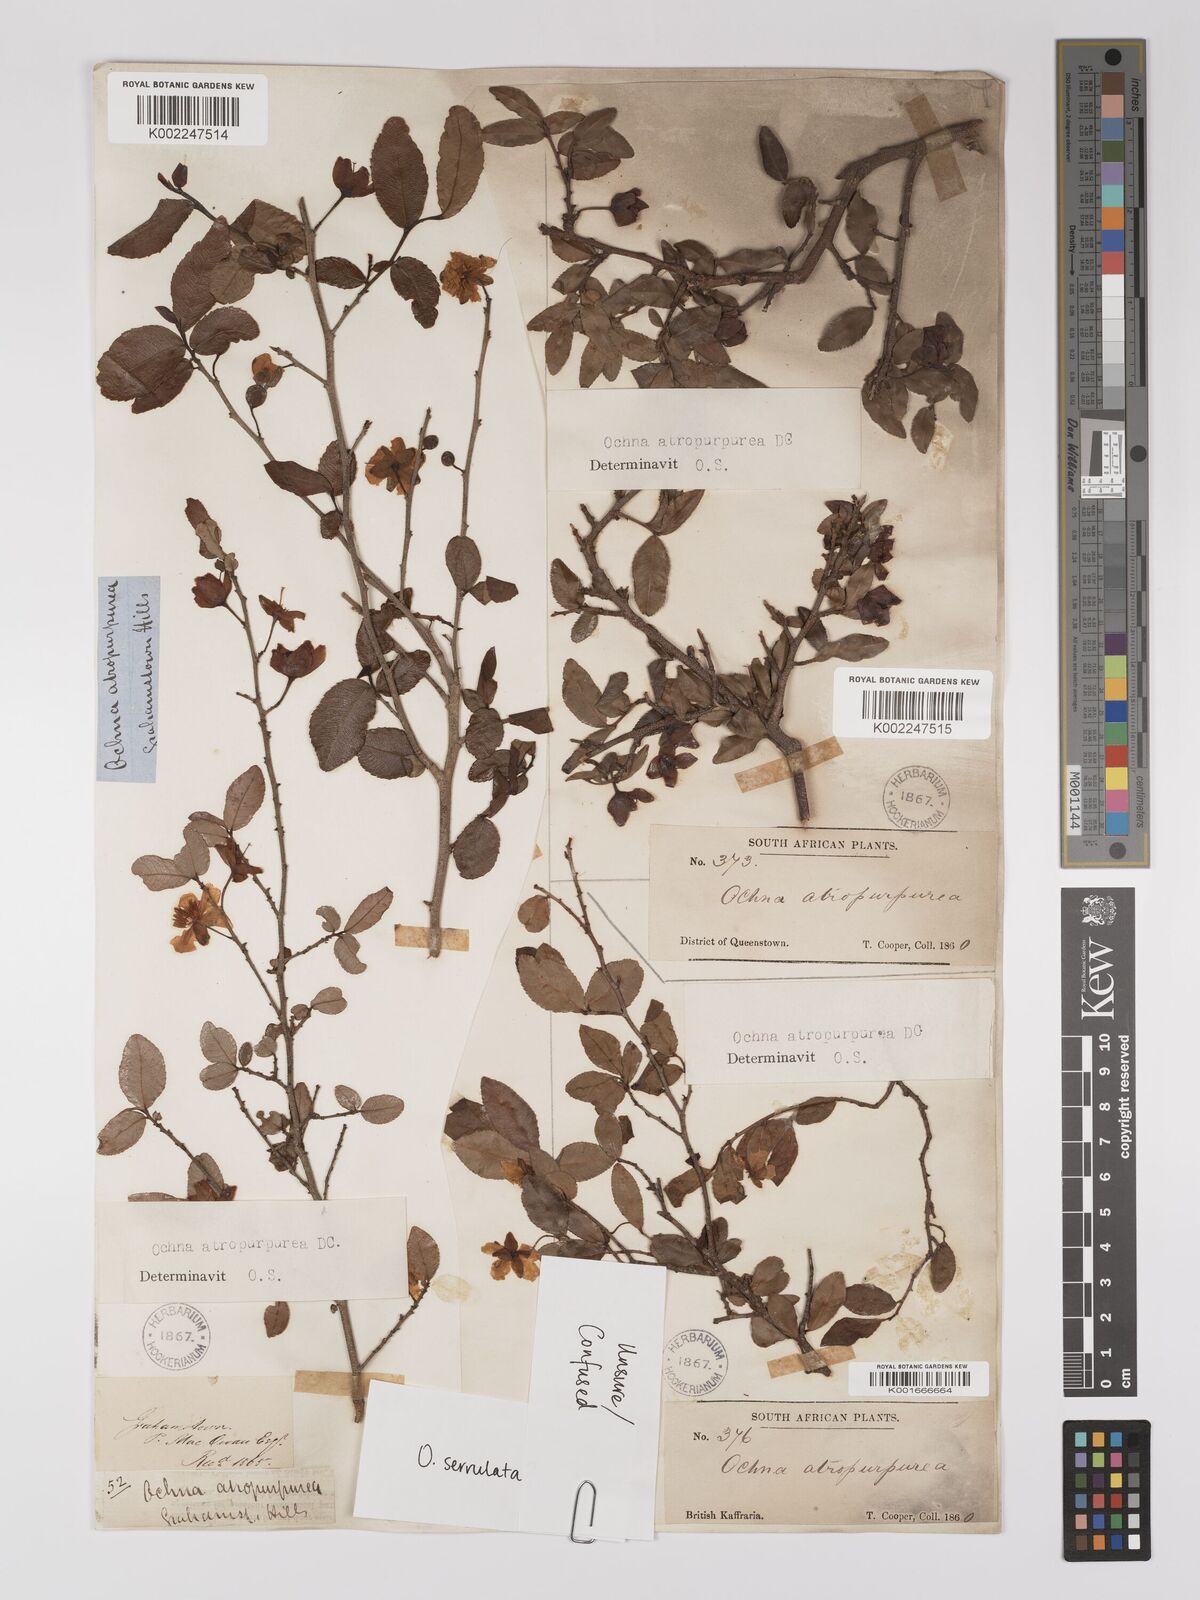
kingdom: Plantae
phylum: Tracheophyta
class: Magnoliopsida
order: Malpighiales
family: Ochnaceae
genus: Ochna
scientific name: Ochna serrulata
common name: Mickey mouse plant
